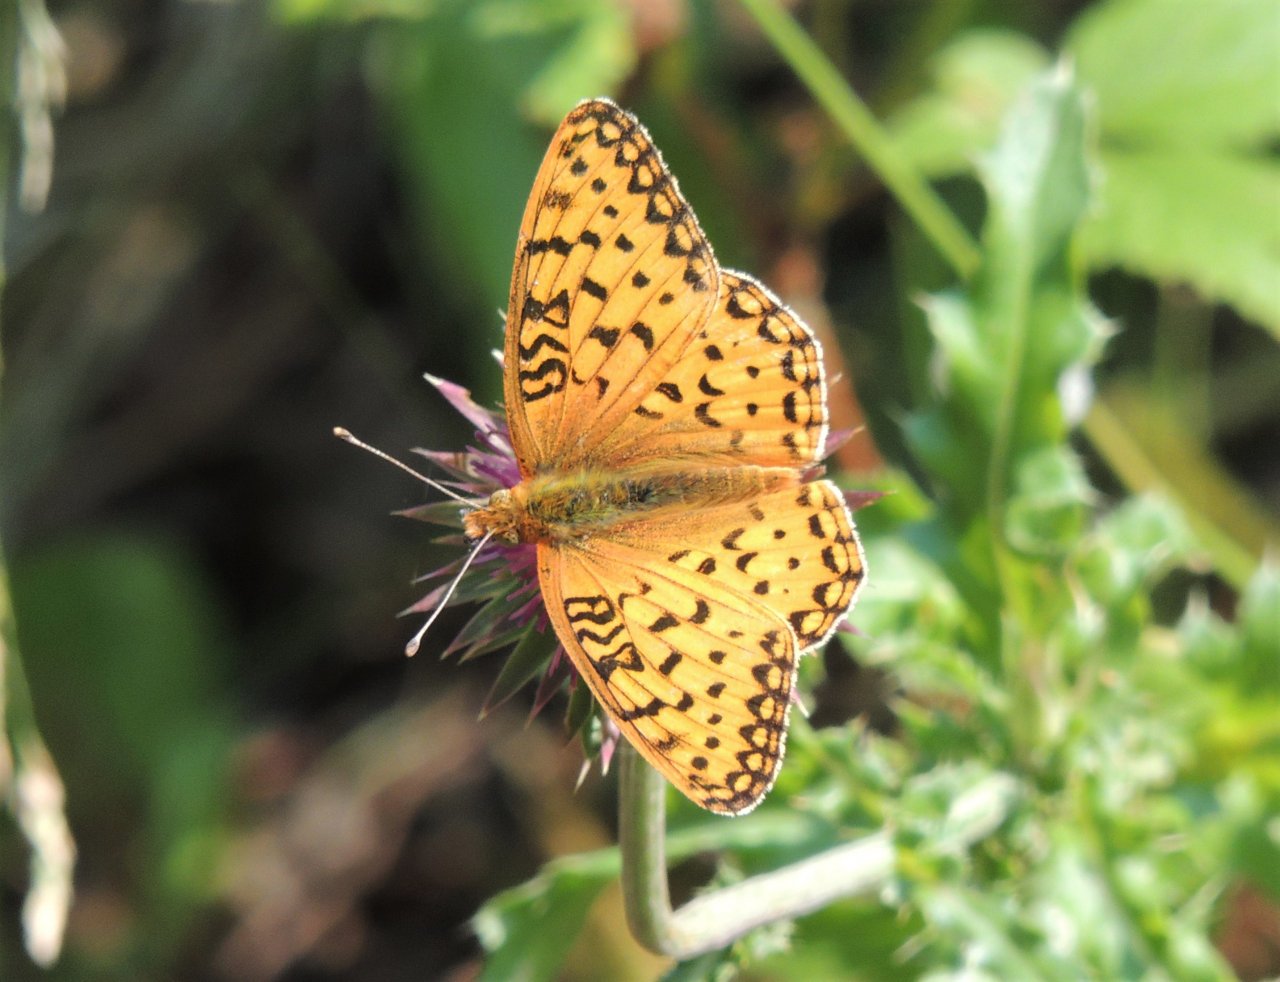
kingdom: Animalia
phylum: Arthropoda
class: Insecta
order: Lepidoptera
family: Nymphalidae
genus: Speyeria
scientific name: Speyeria mormonia
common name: Mormon Fritillary
